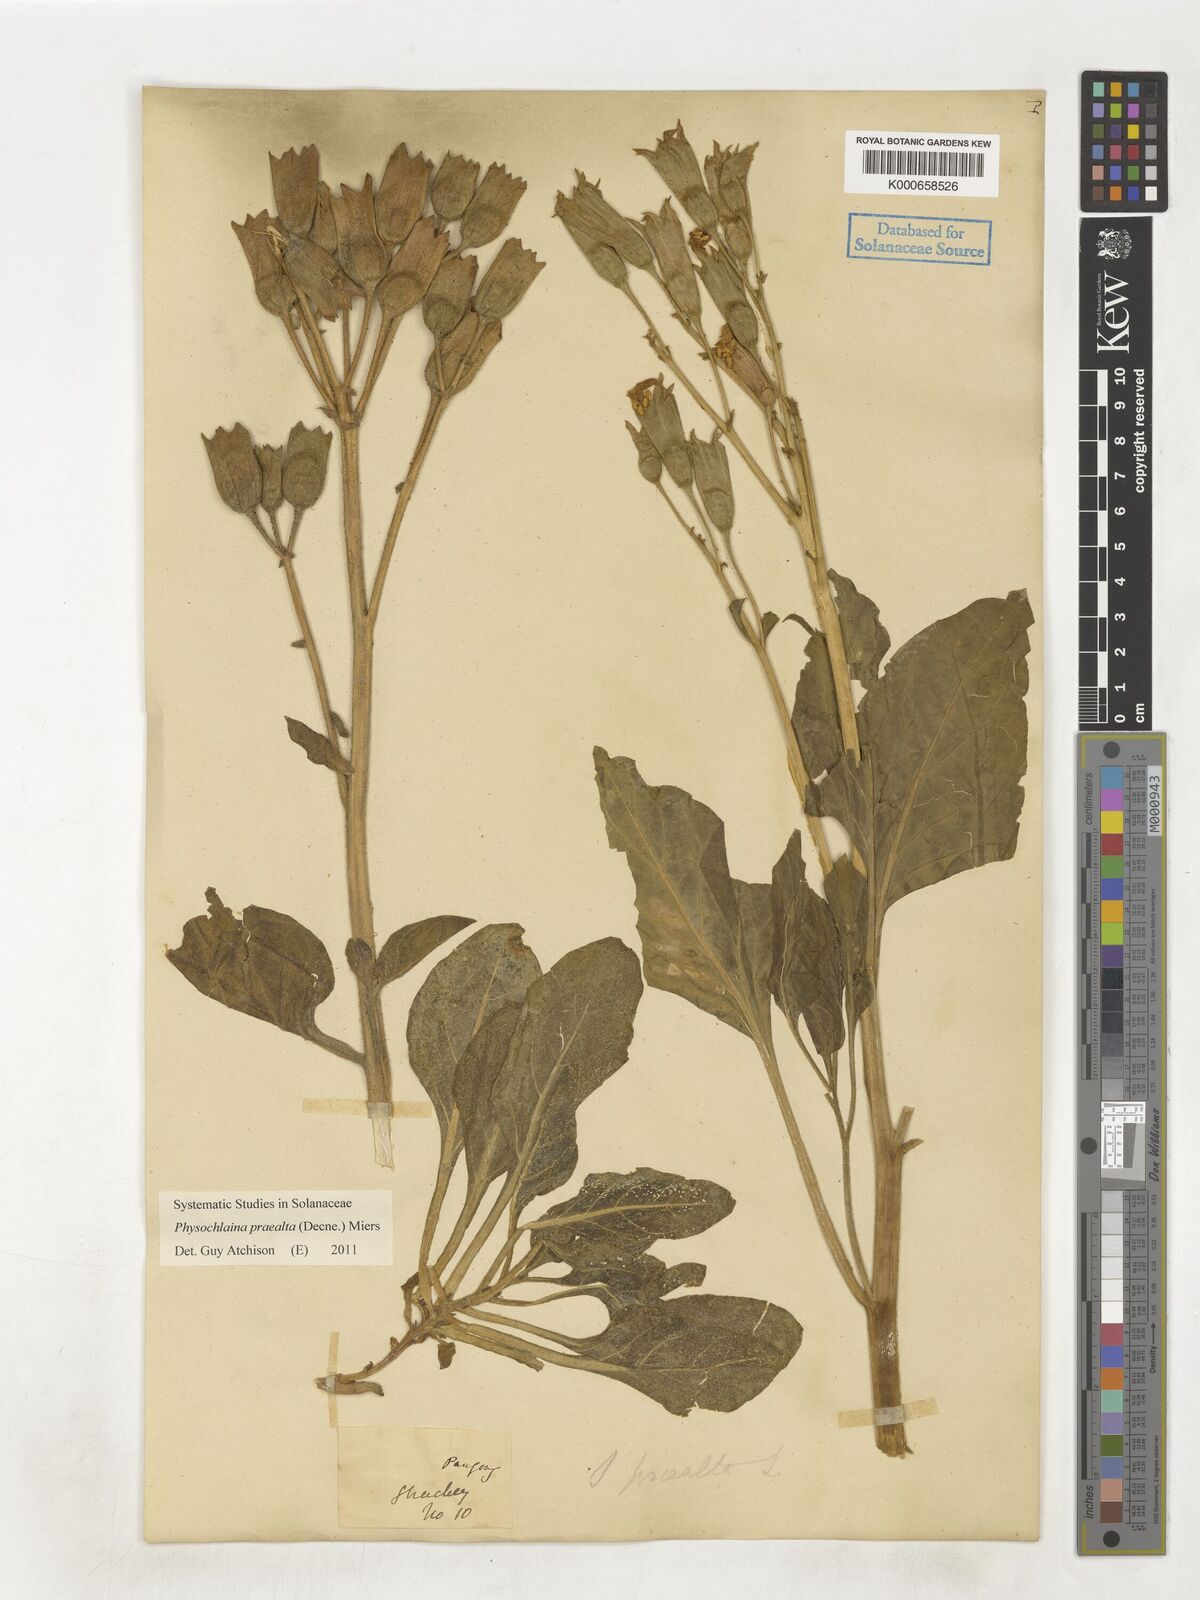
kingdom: Plantae
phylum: Tracheophyta
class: Magnoliopsida
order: Solanales
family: Solanaceae
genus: Physochlaina
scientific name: Physochlaina praealta
